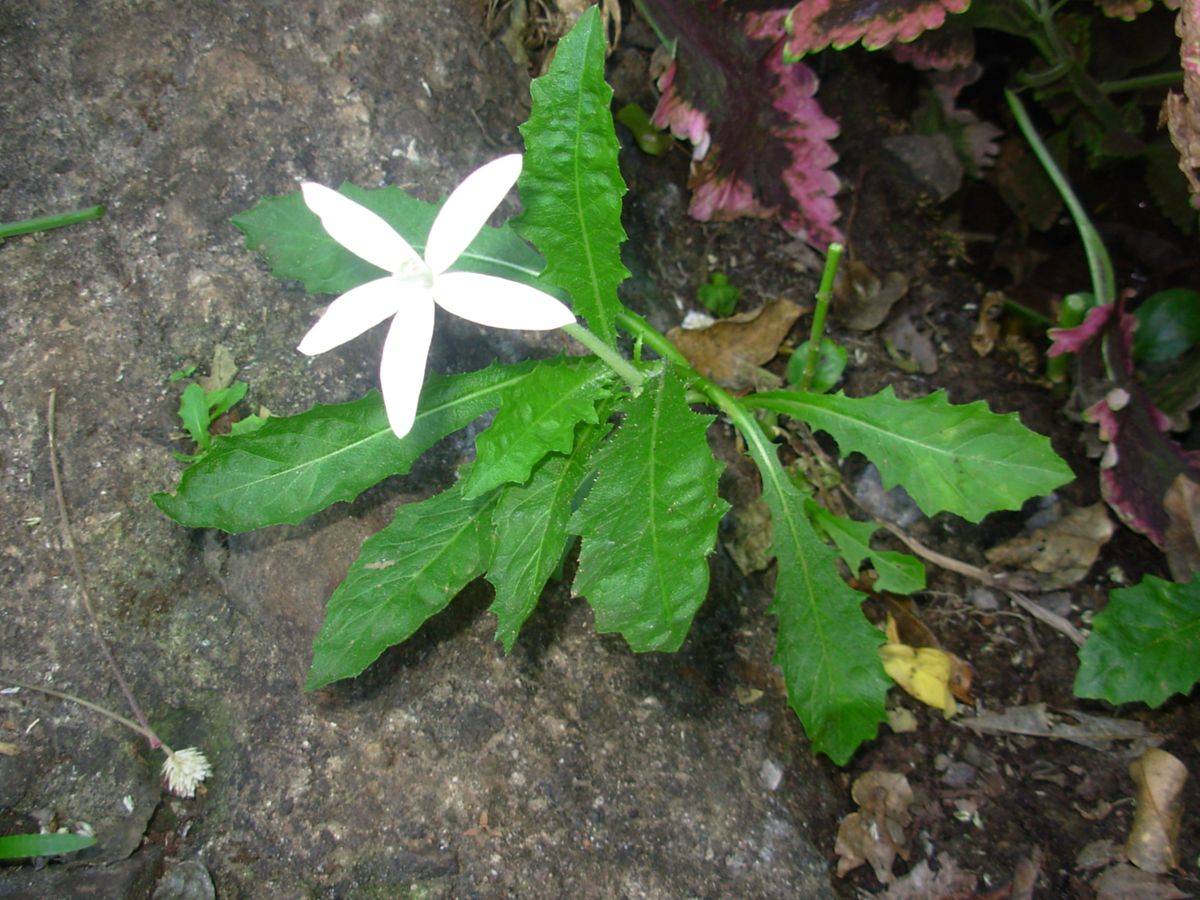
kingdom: Plantae
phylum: Tracheophyta
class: Magnoliopsida
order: Asterales
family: Campanulaceae
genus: Hippobroma
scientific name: Hippobroma longiflora
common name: Madamfate
